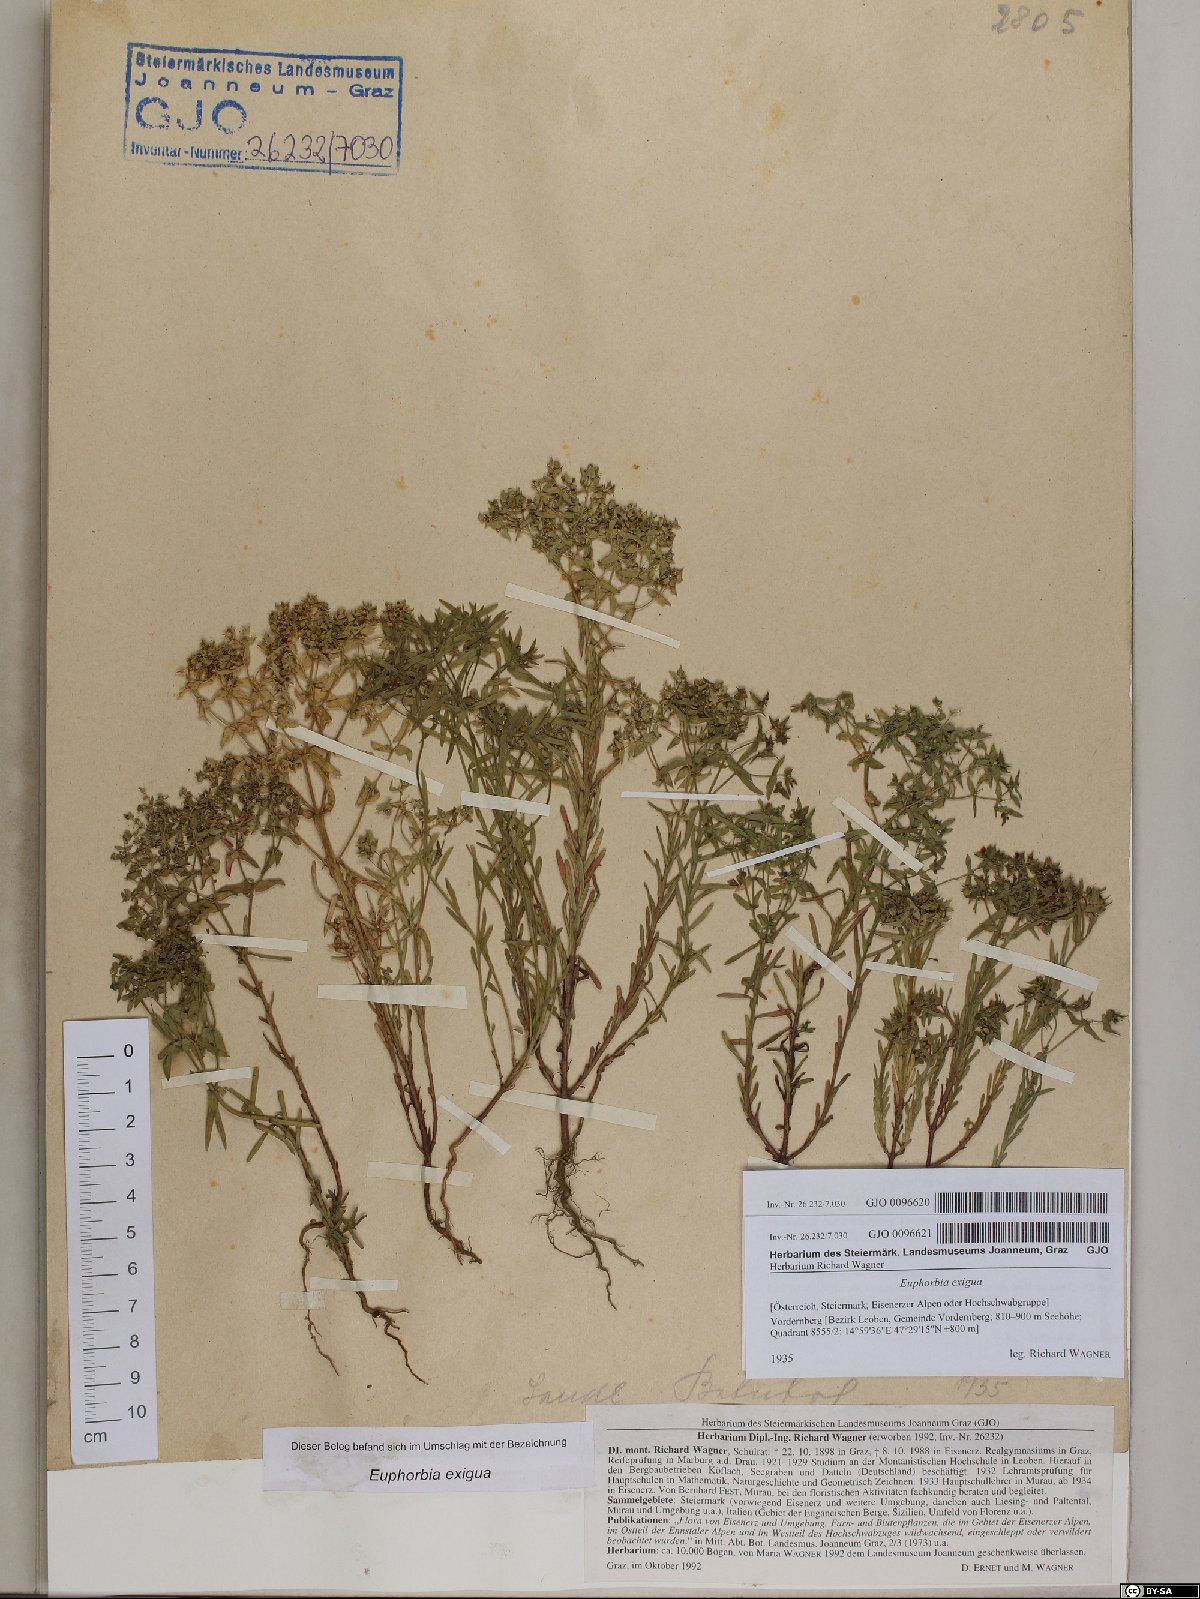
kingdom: Plantae
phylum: Tracheophyta
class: Magnoliopsida
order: Malpighiales
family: Euphorbiaceae
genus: Euphorbia
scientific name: Euphorbia exigua
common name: Dwarf spurge
